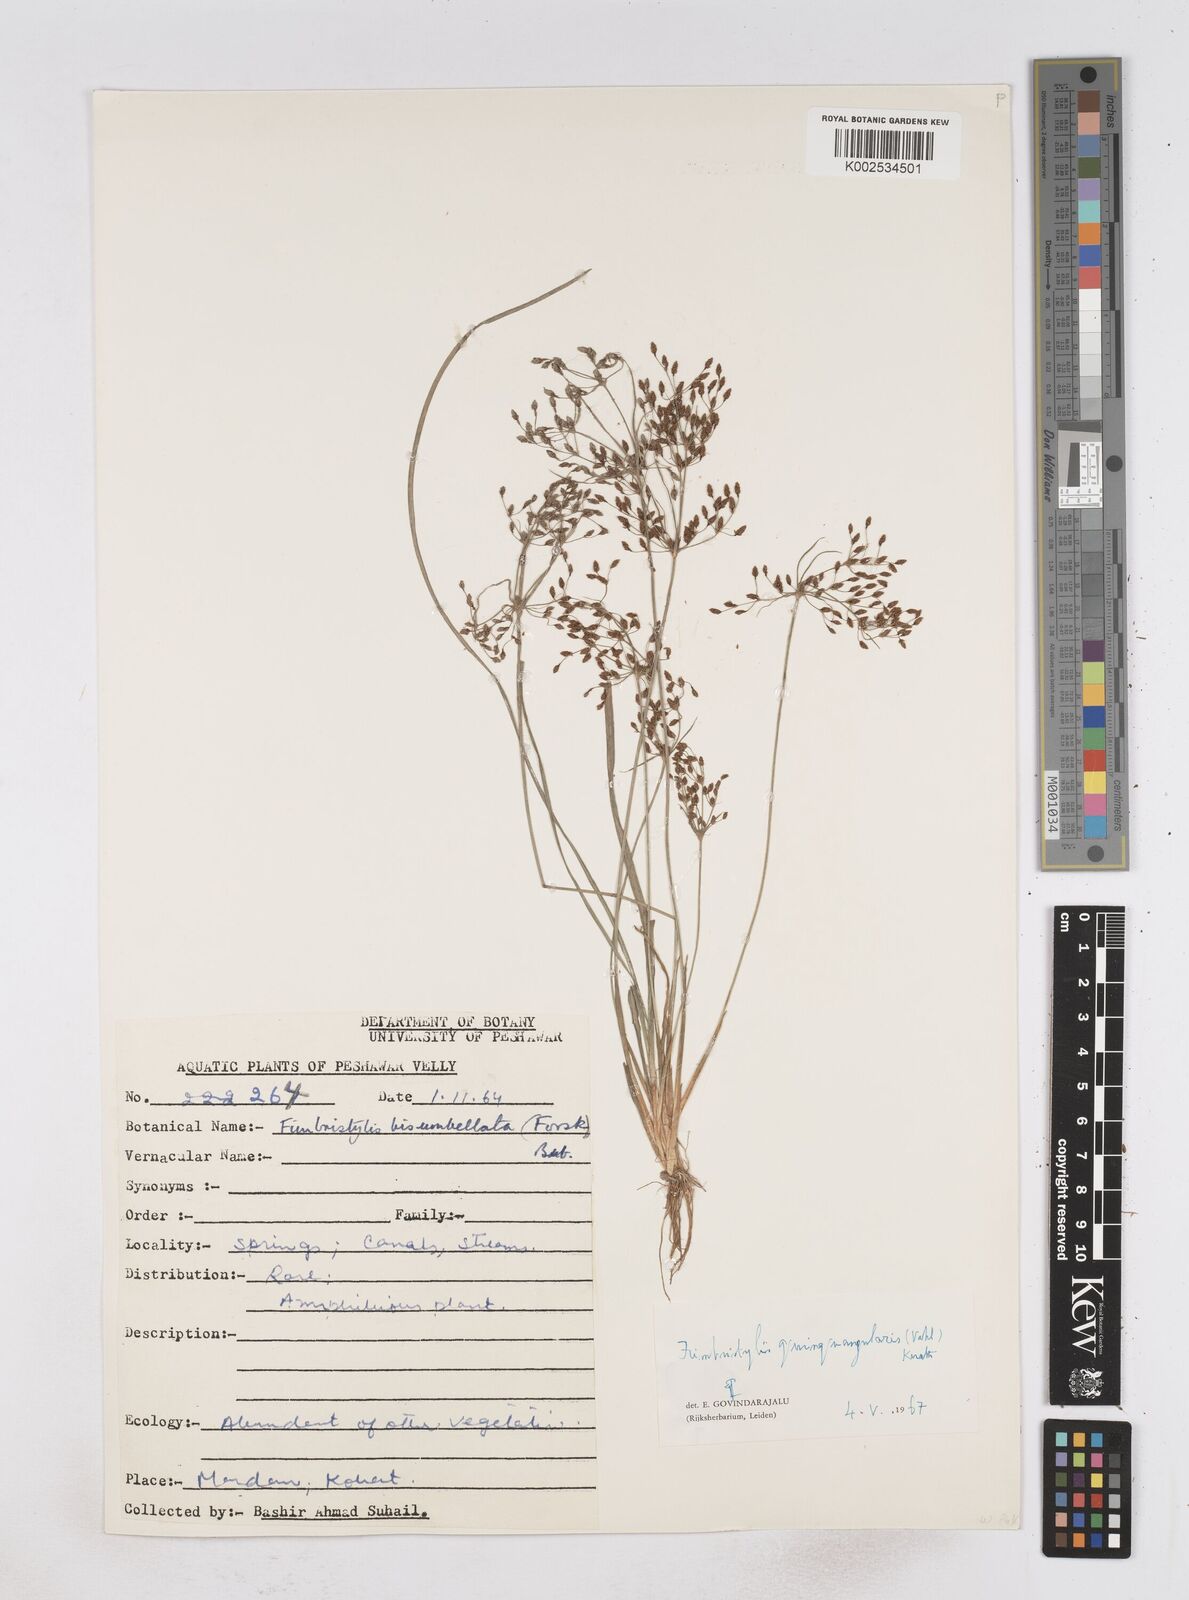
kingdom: Plantae
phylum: Tracheophyta
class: Liliopsida
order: Poales
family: Cyperaceae
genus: Fimbristylis
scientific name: Fimbristylis quinquangularis
